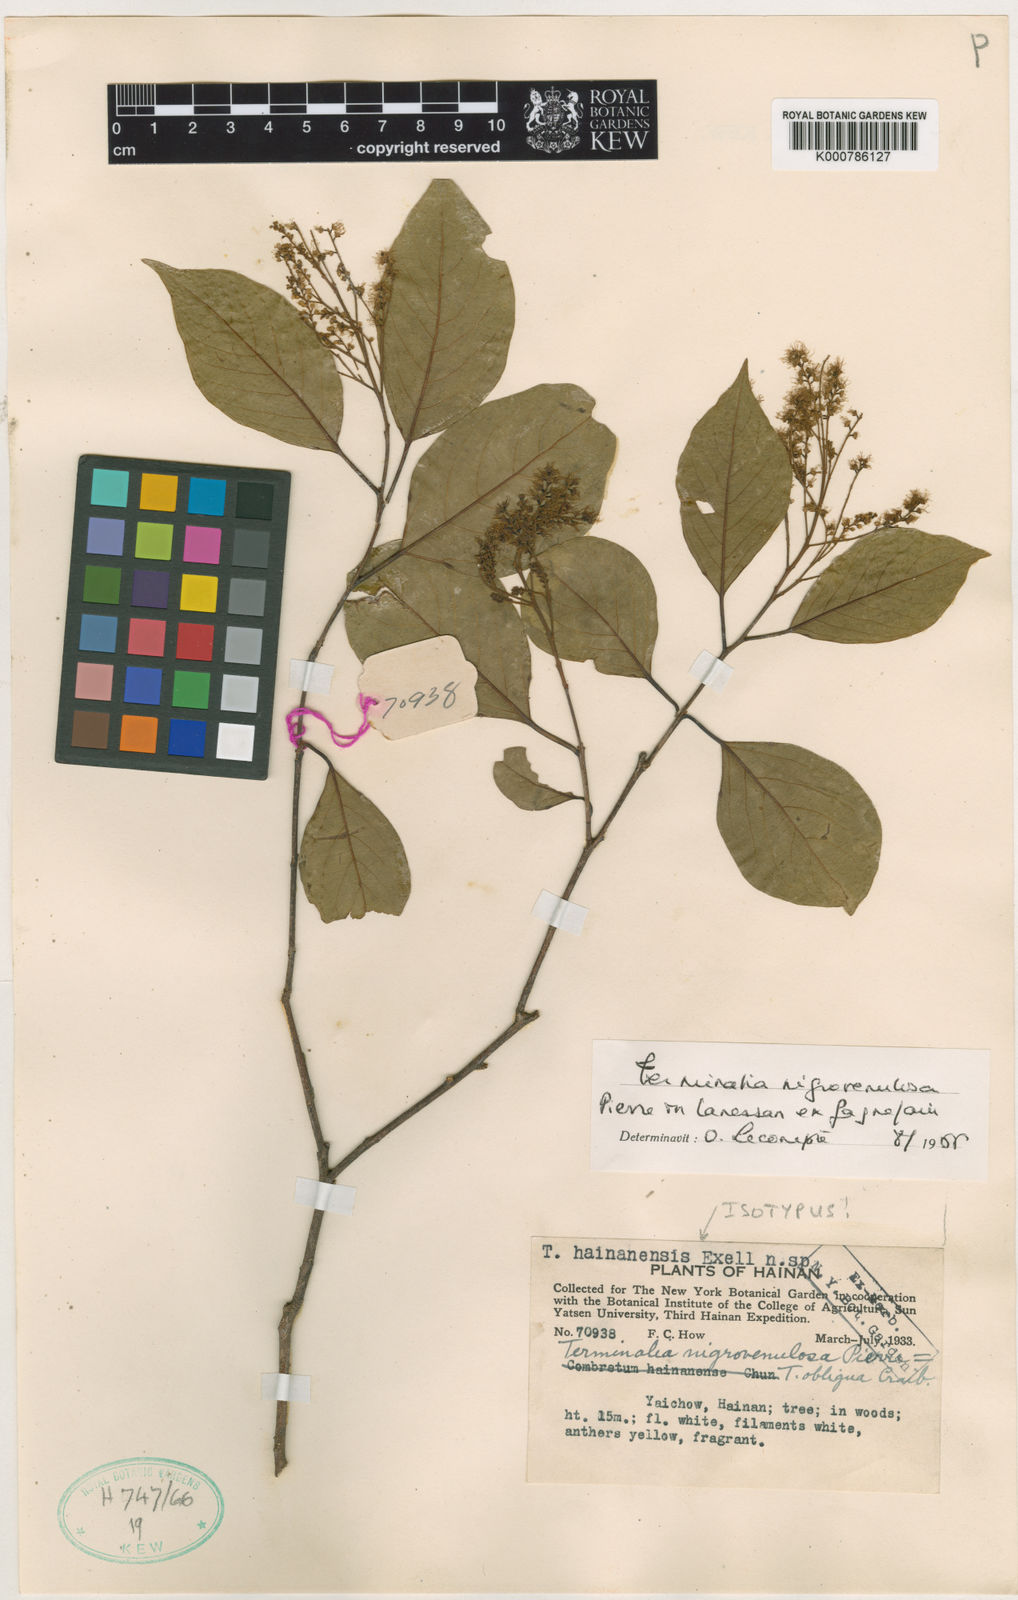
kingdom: Plantae
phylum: Tracheophyta
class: Magnoliopsida
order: Myrtales
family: Combretaceae
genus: Terminalia
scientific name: Terminalia triptera
